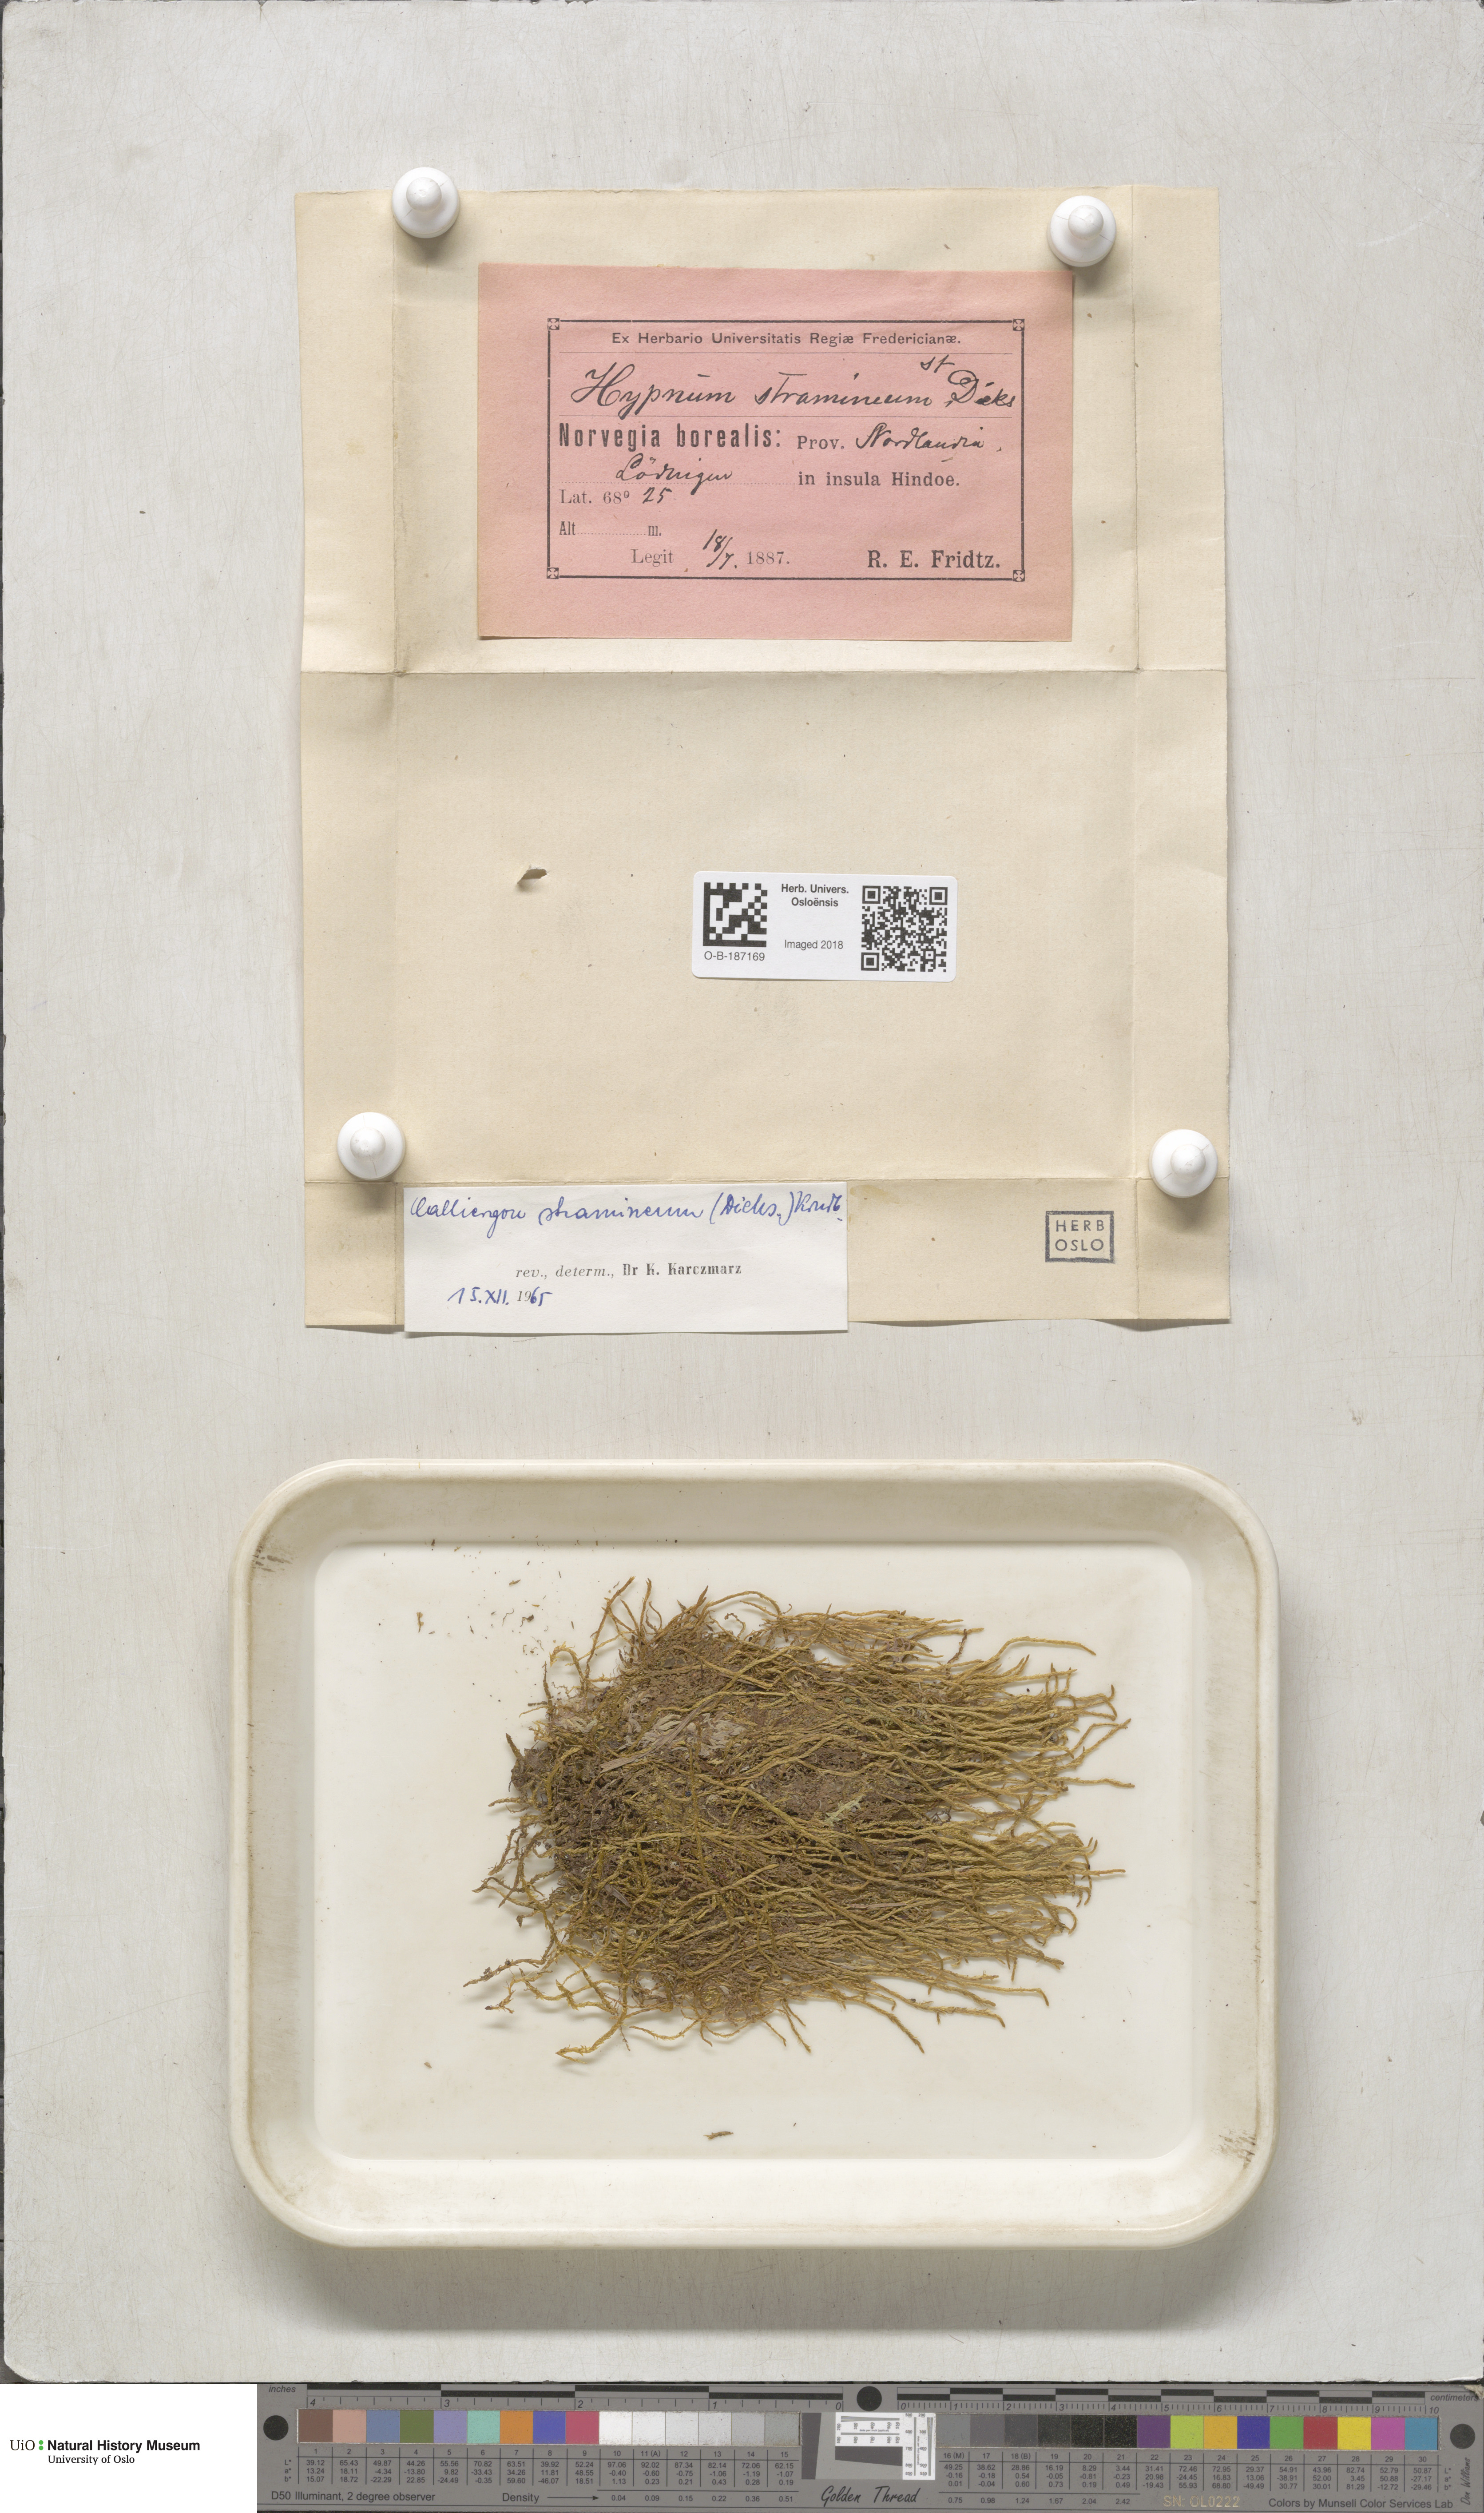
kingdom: Plantae
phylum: Bryophyta
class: Bryopsida
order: Hypnales
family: Calliergonaceae
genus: Straminergon
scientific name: Straminergon stramineum
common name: Straw moss
